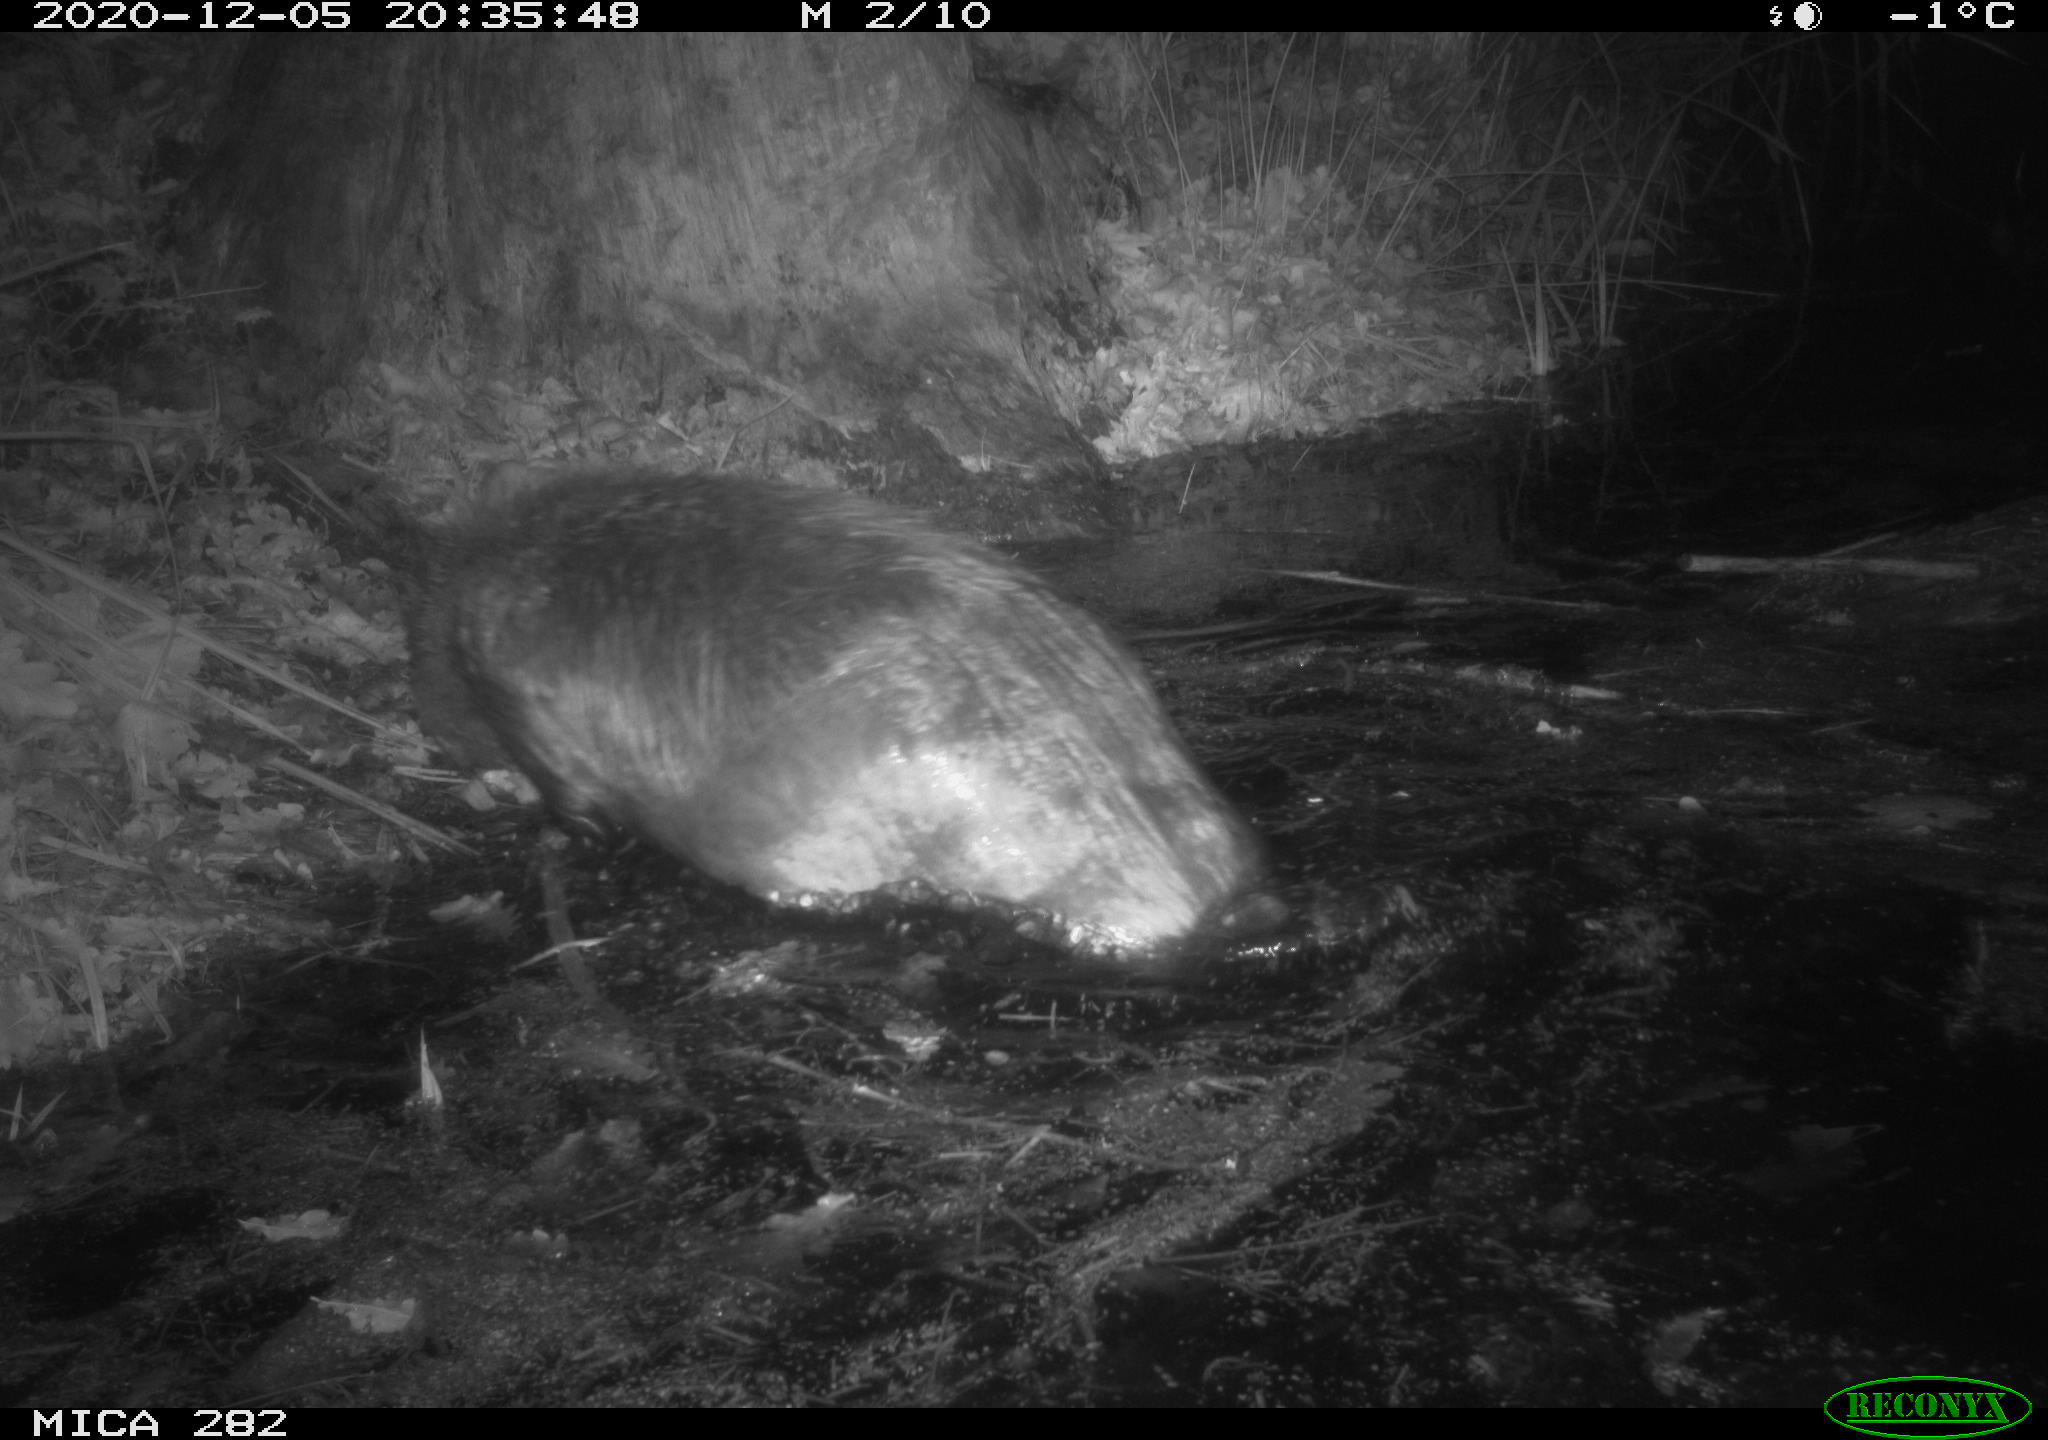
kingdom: Animalia
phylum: Chordata
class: Mammalia
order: Rodentia
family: Castoridae
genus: Castor
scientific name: Castor fiber
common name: Eurasian beaver
